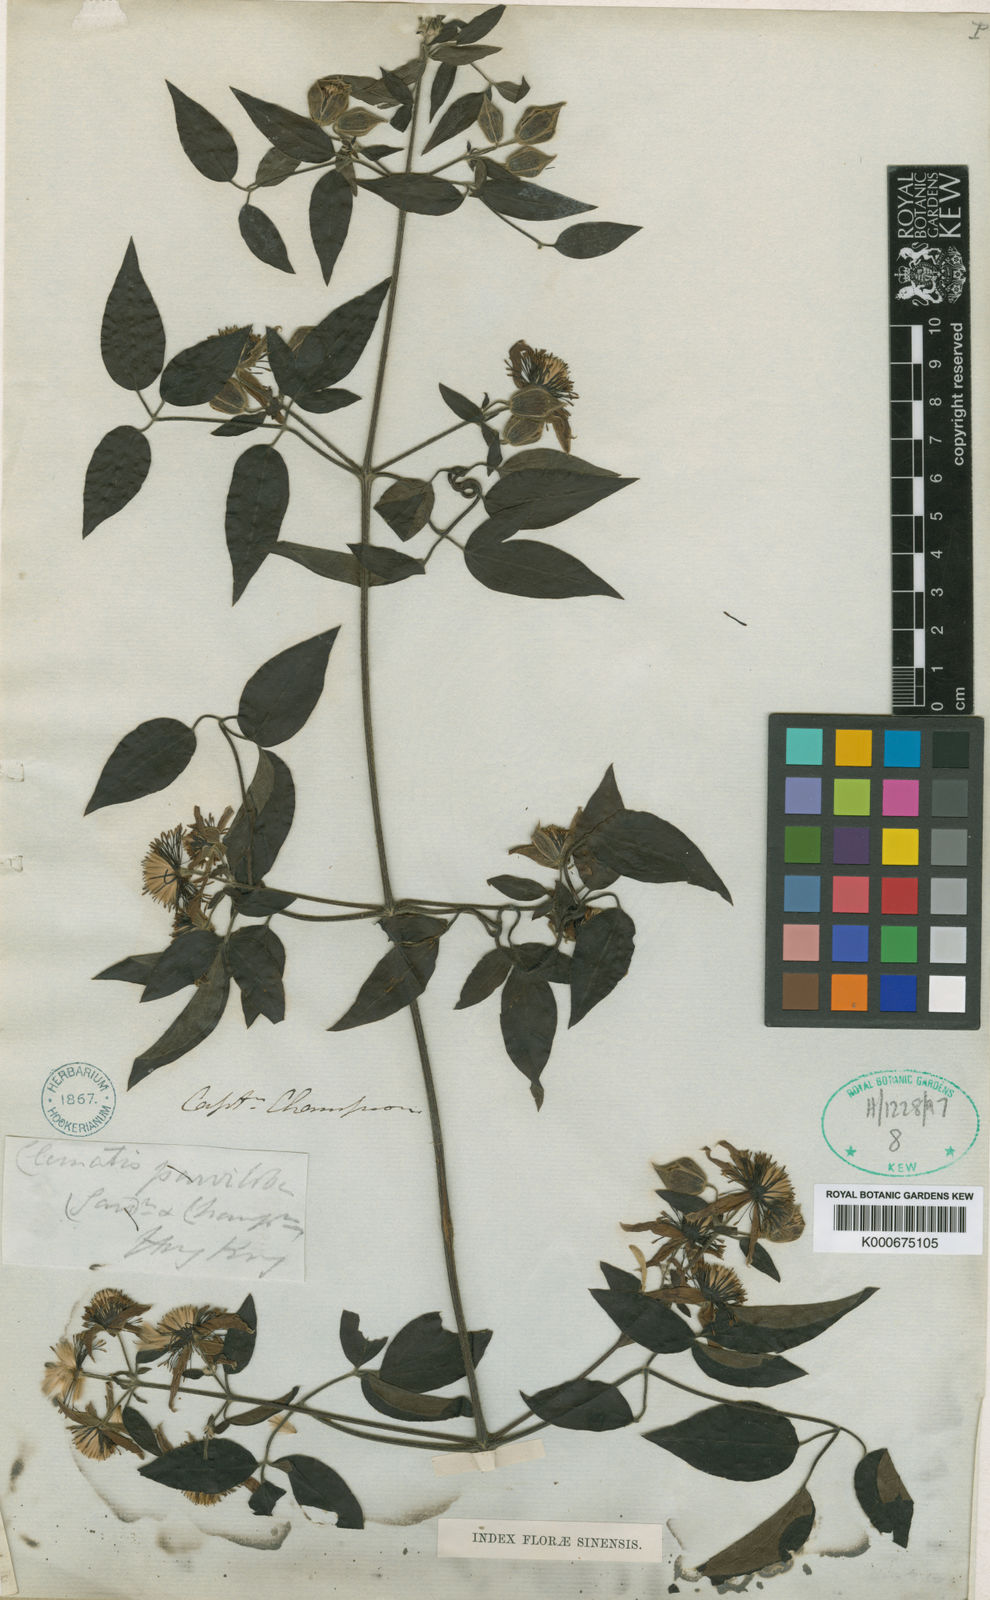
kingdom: Plantae
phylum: Tracheophyta
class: Magnoliopsida
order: Ranunculales
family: Ranunculaceae
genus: Clematis
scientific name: Clematis parviloba
